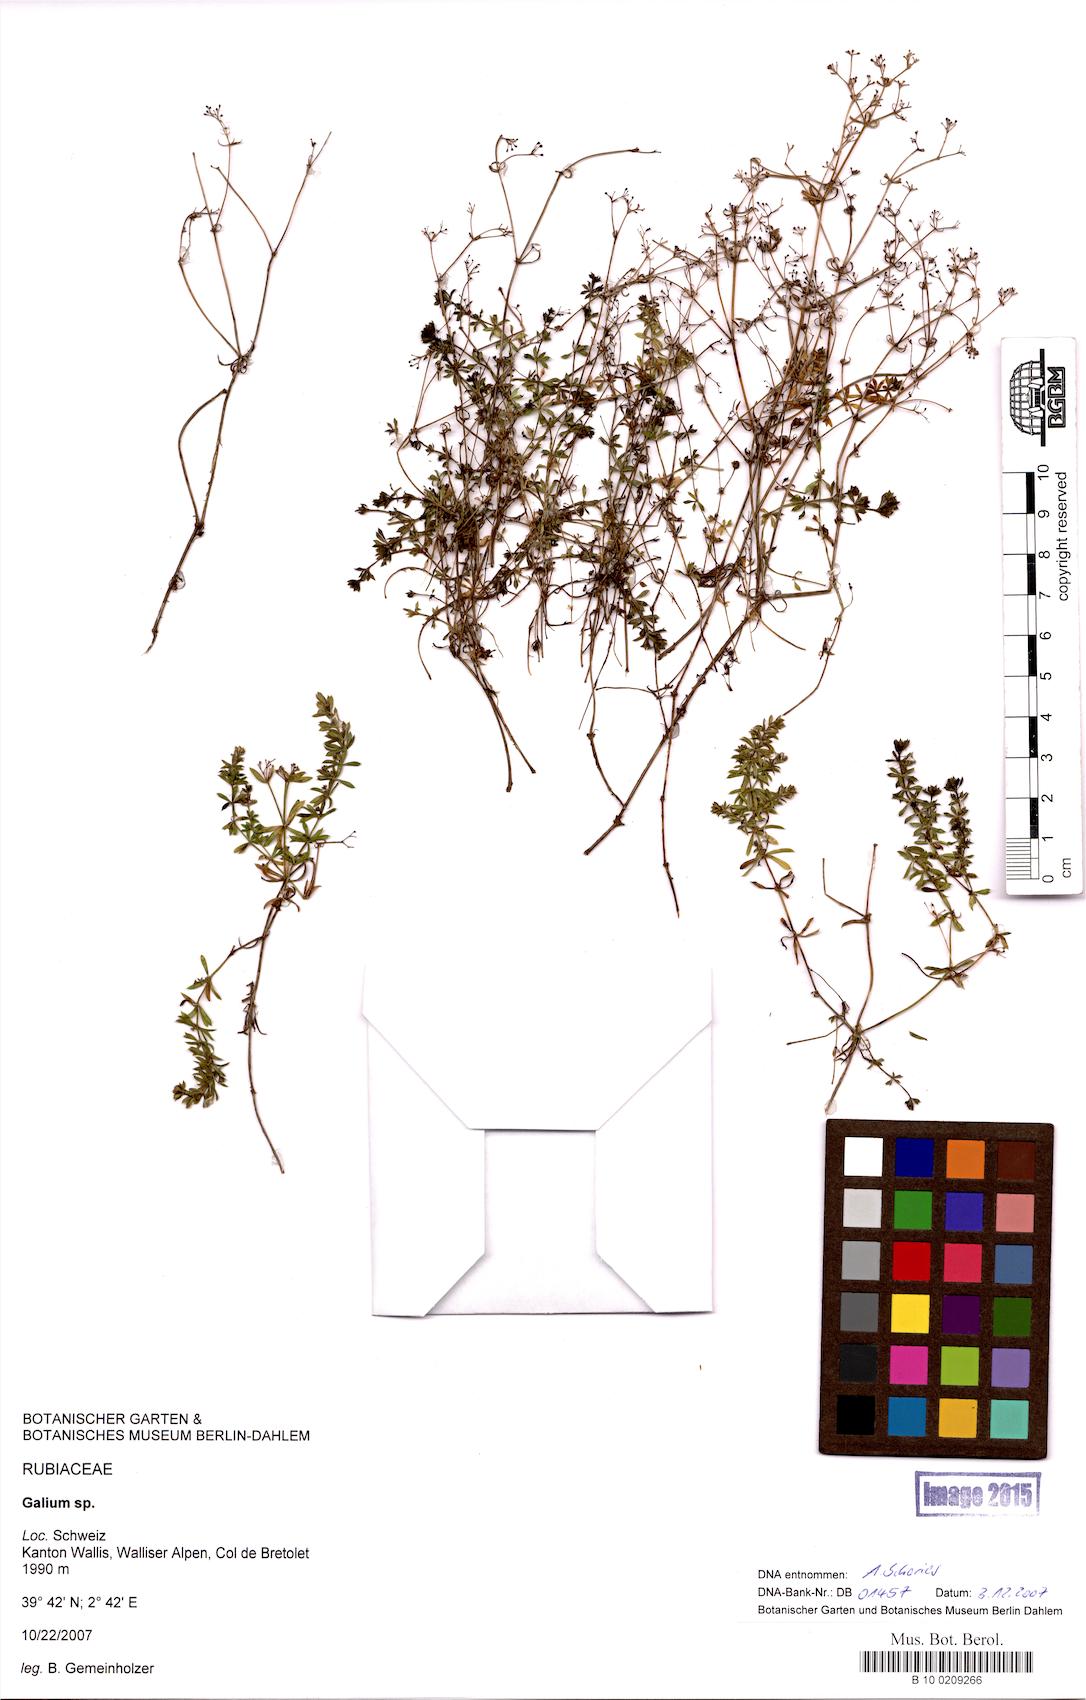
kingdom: Plantae
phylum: Tracheophyta
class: Magnoliopsida
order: Gentianales
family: Rubiaceae
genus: Galium
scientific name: Galium
